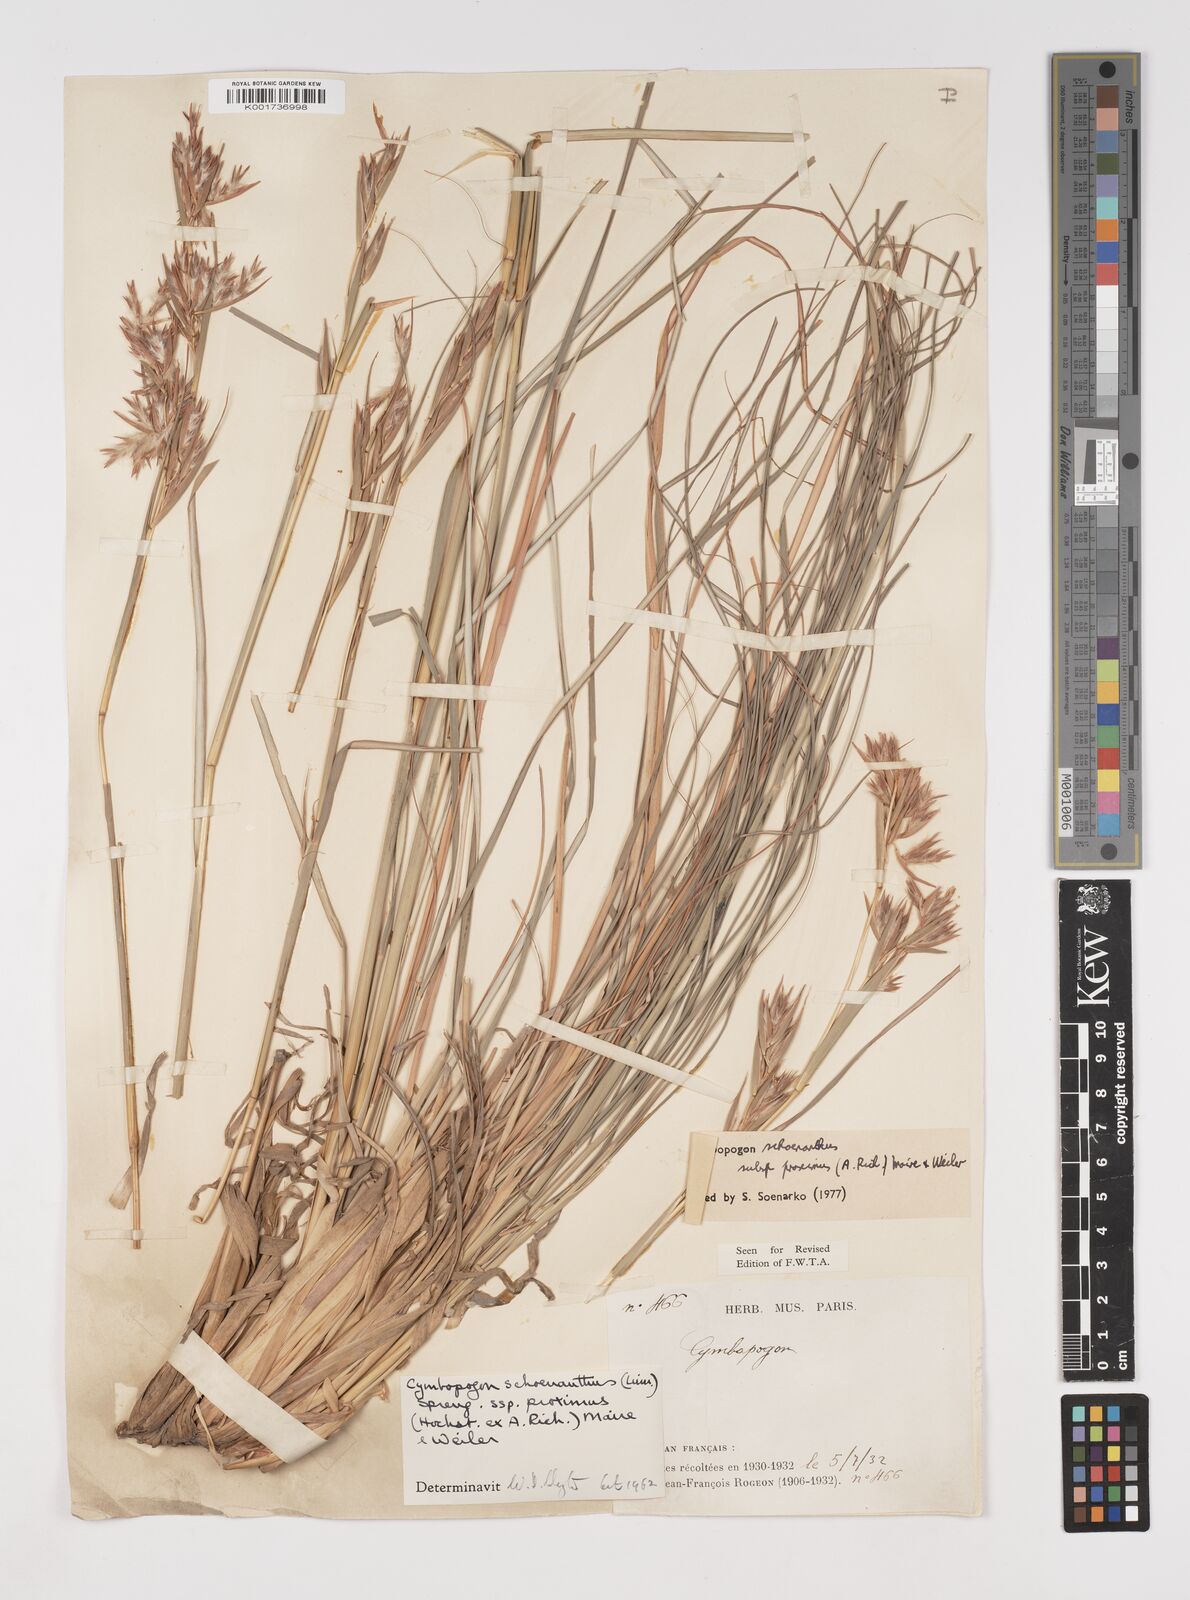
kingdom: Plantae
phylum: Tracheophyta
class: Liliopsida
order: Poales
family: Poaceae
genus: Cymbopogon
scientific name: Cymbopogon schoenanthus
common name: Geranium grass
